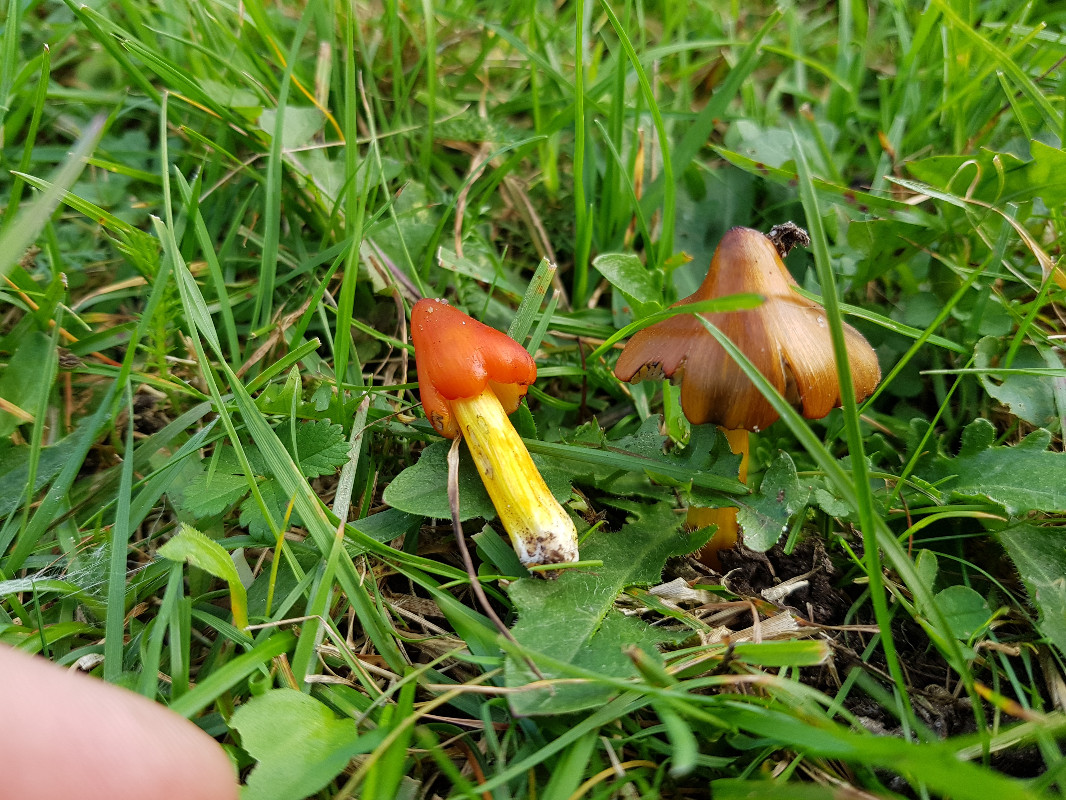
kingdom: Fungi
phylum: Basidiomycota
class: Agaricomycetes
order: Agaricales
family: Hygrophoraceae
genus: Hygrocybe
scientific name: Hygrocybe conica
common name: kegle-vokshat
